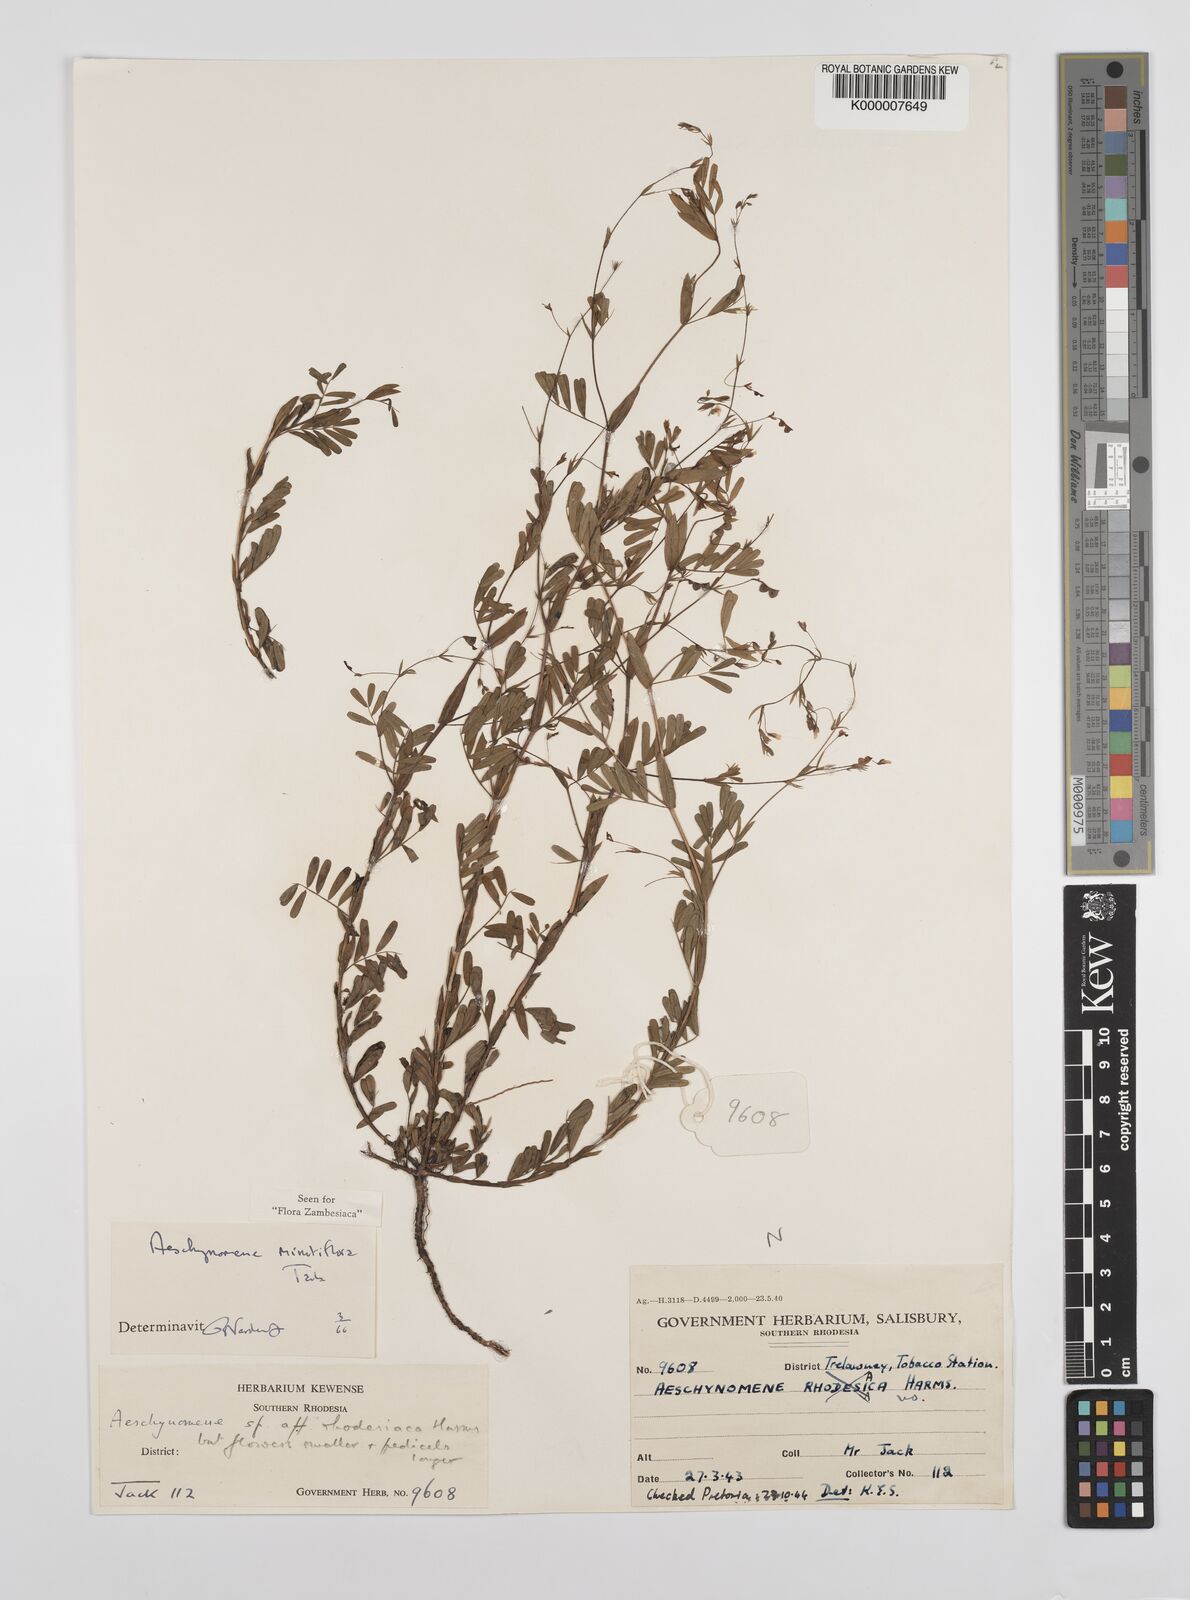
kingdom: Plantae
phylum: Tracheophyta
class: Magnoliopsida
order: Fabales
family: Fabaceae
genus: Aeschynomene
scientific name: Aeschynomene minutiflora
